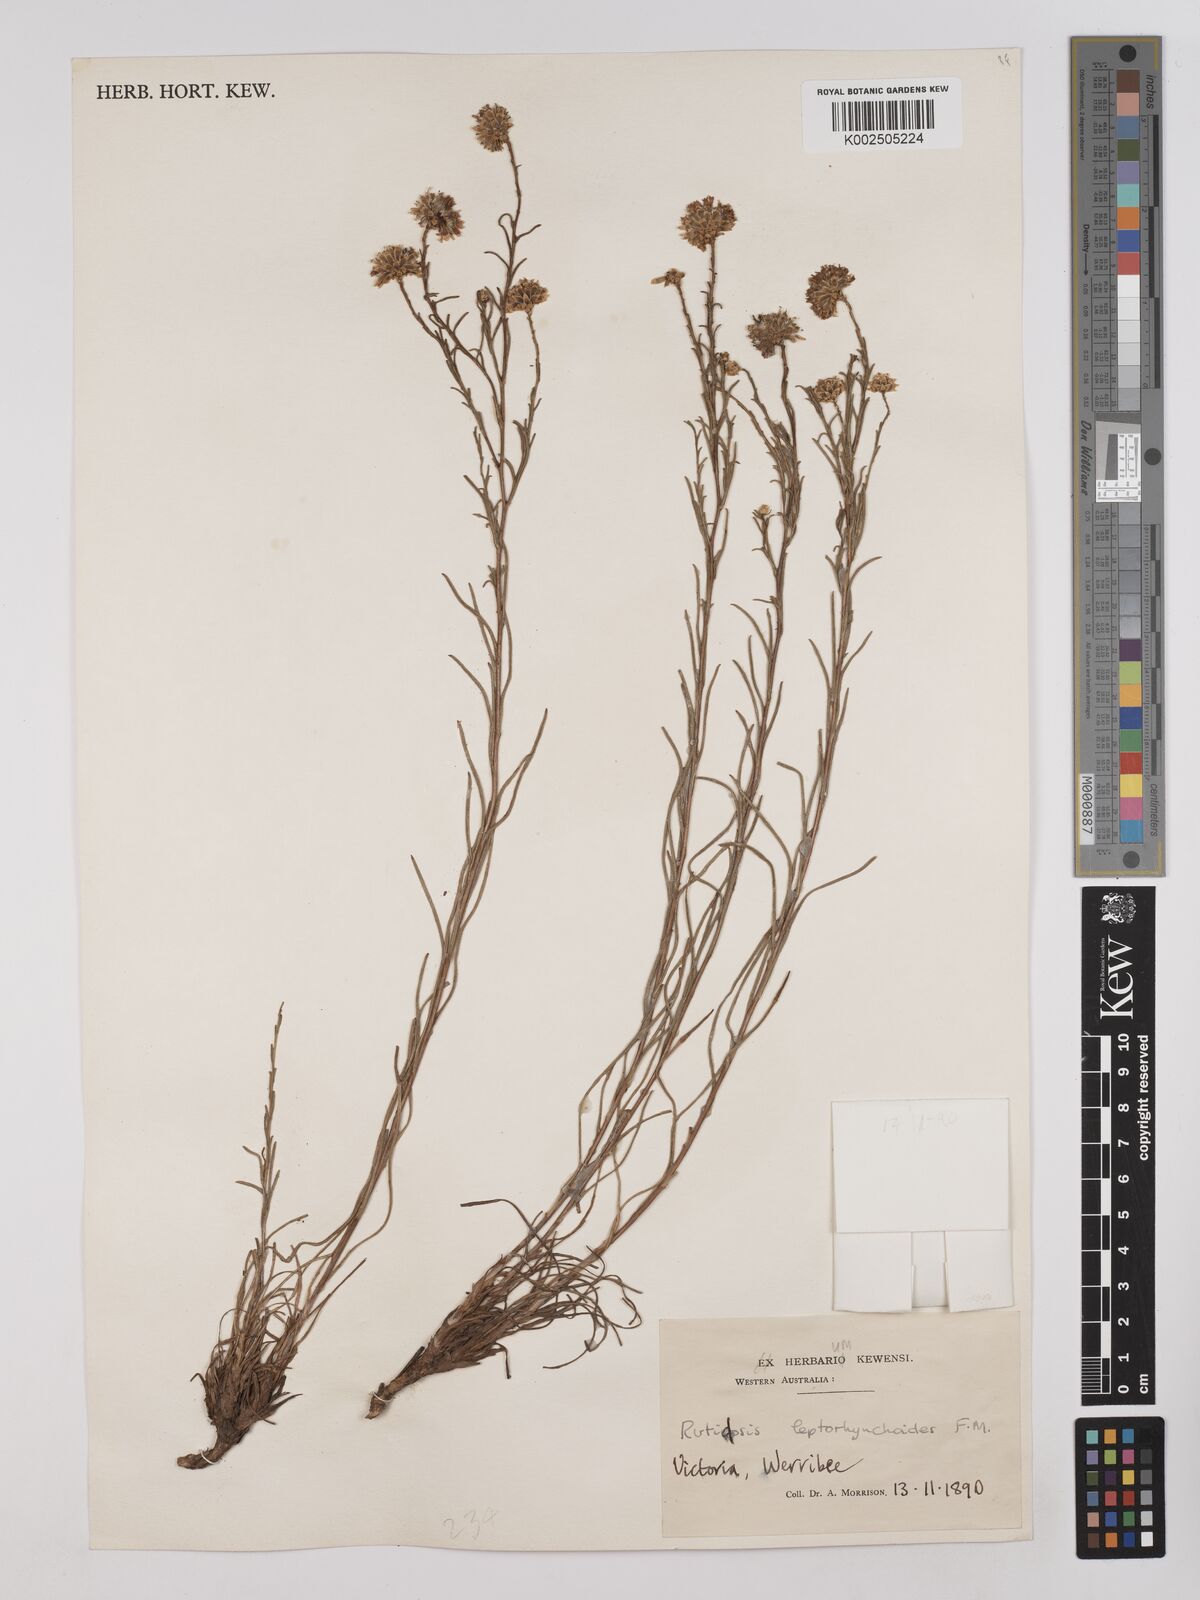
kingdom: Plantae
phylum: Tracheophyta
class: Magnoliopsida
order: Asterales
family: Asteraceae
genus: Rutidosis
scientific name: Rutidosis leptorrhynchoides
